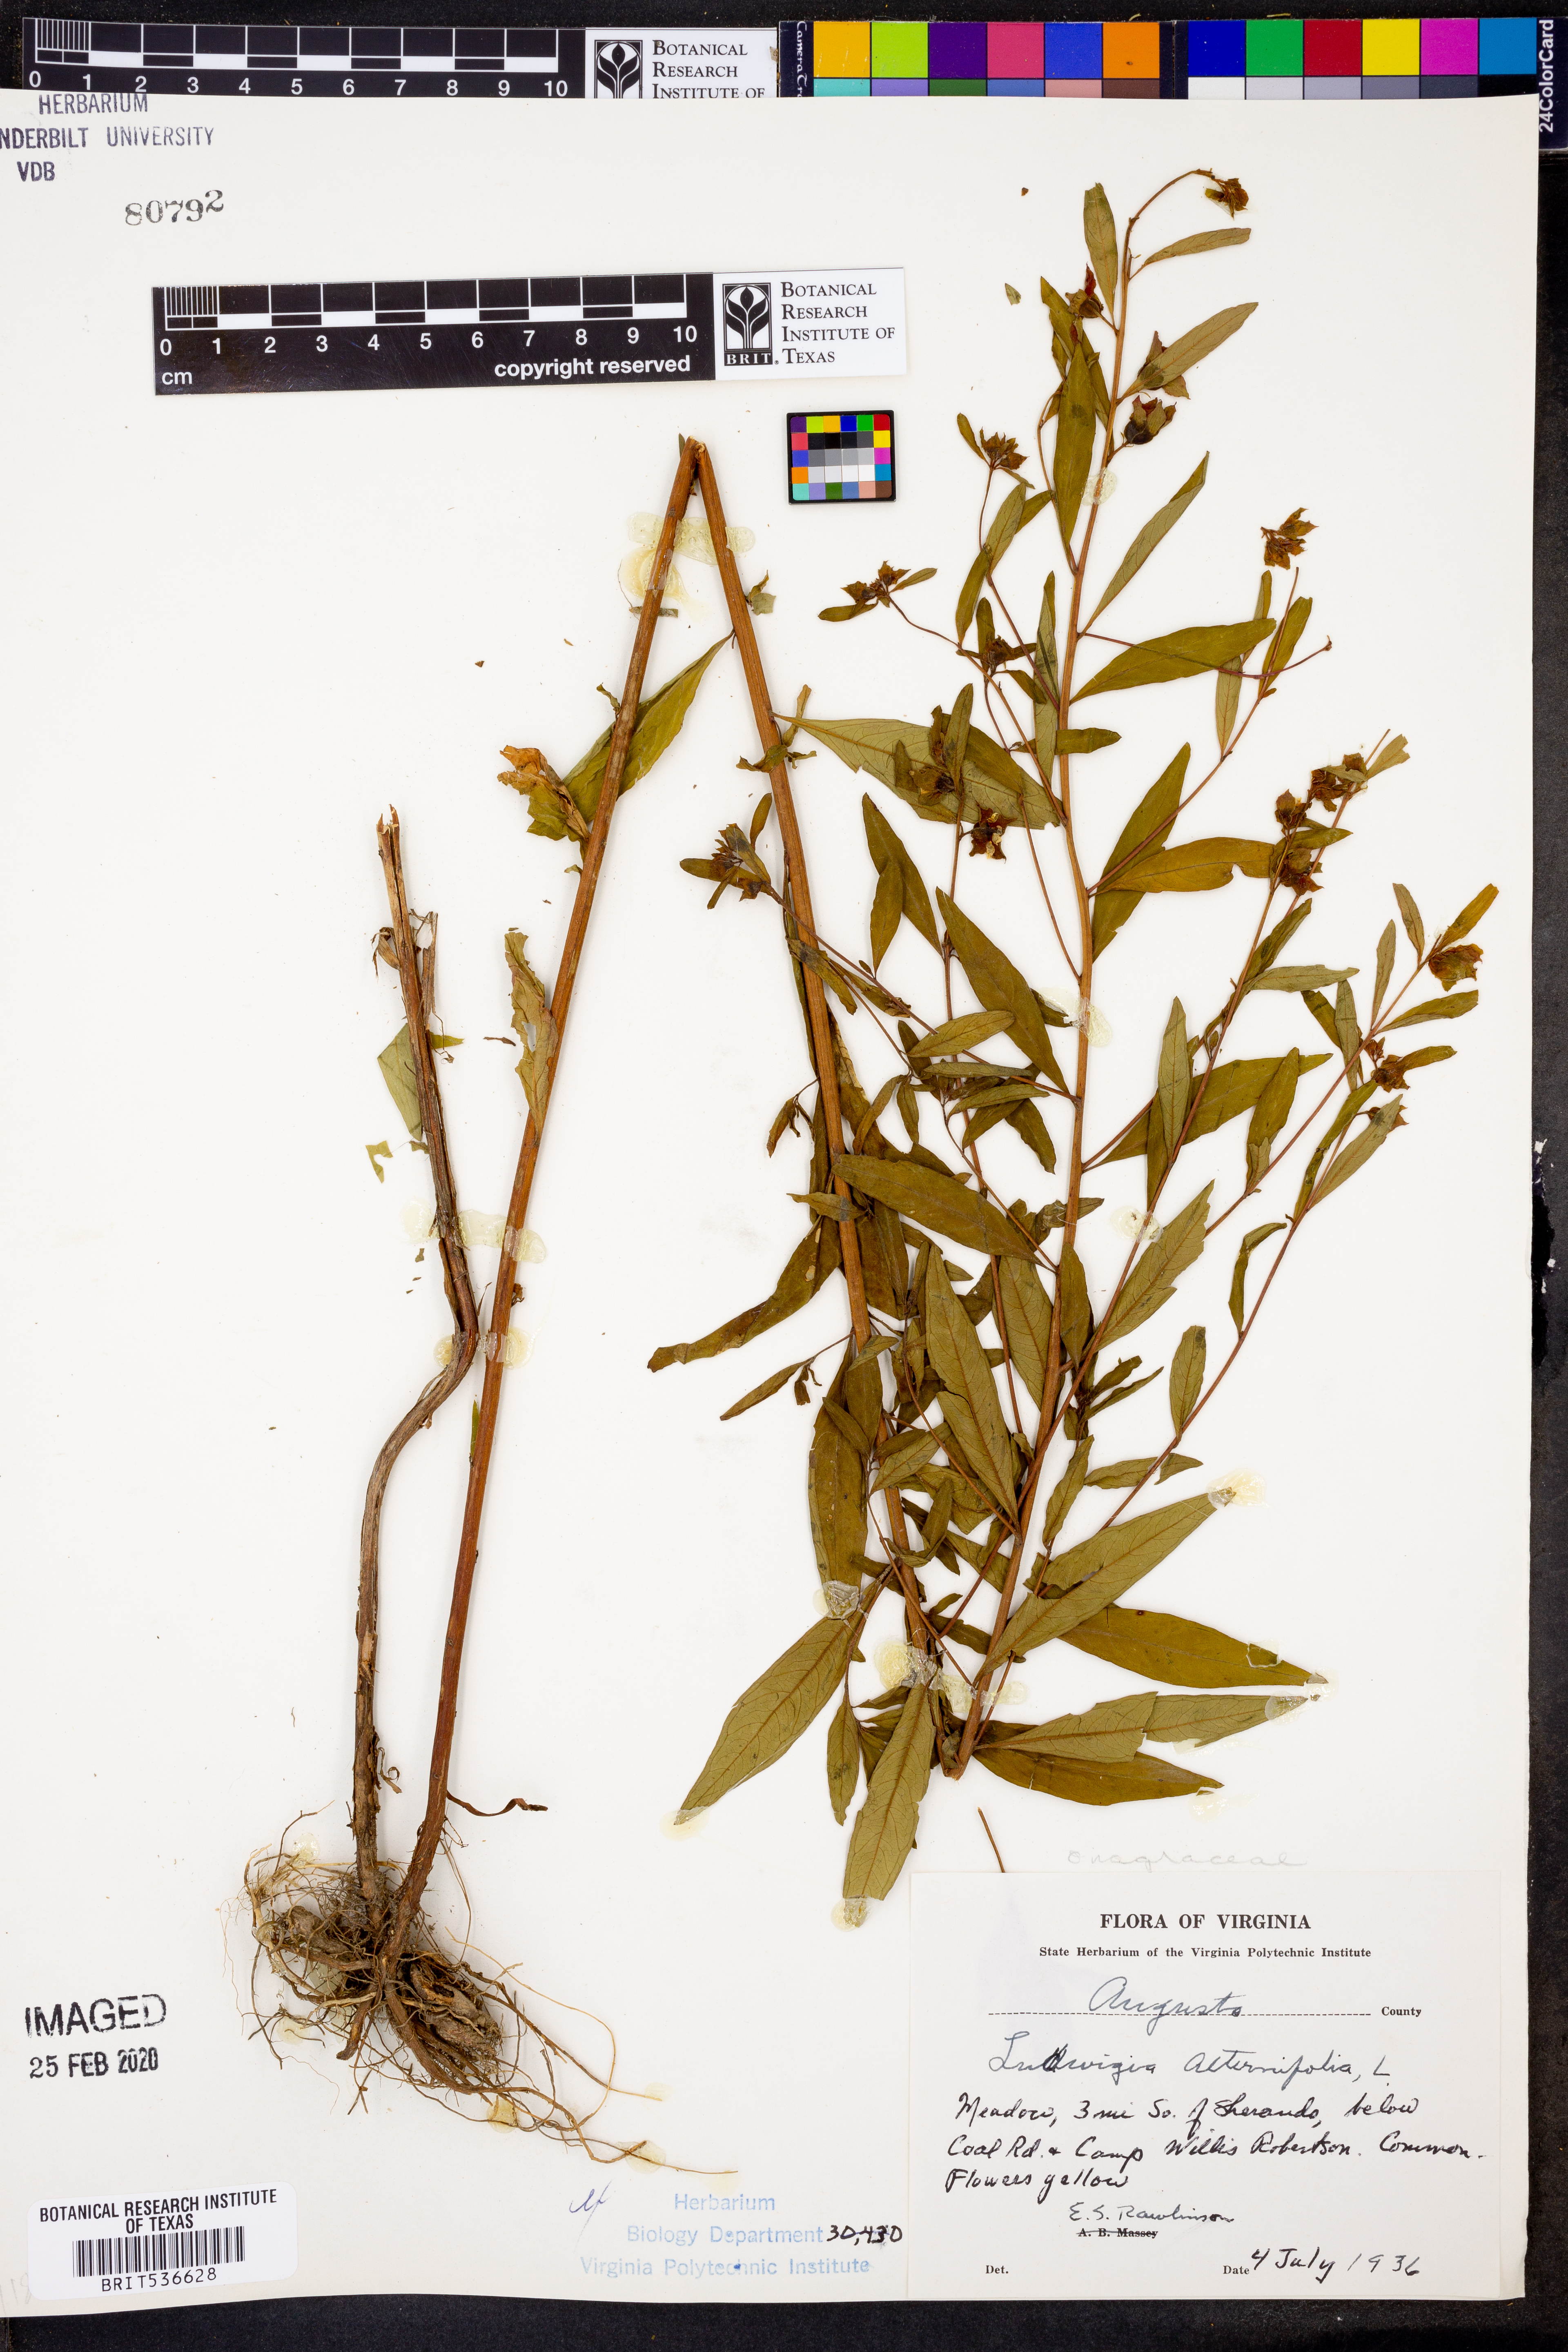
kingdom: Plantae
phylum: Tracheophyta
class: Magnoliopsida
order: Myrtales
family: Onagraceae
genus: Ludwigia
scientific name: Ludwigia alternifolia
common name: Rattlebox
